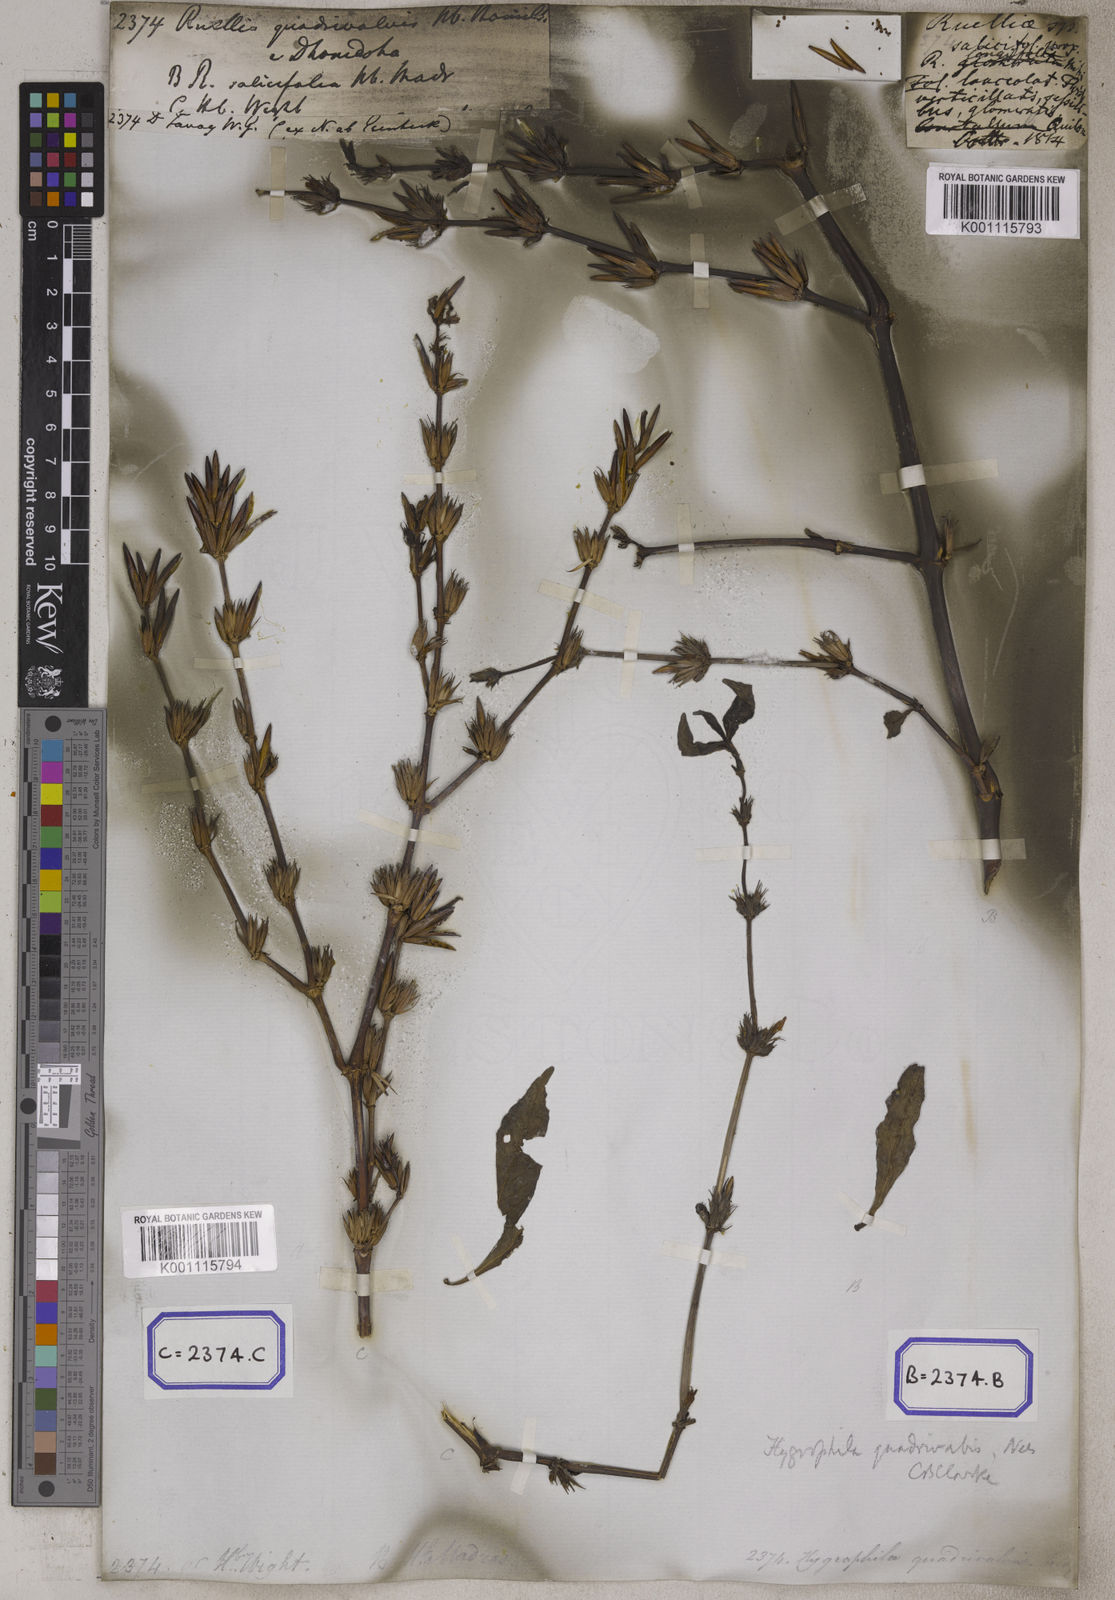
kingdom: Plantae
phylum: Tracheophyta
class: Magnoliopsida
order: Lamiales
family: Acanthaceae
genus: Ruellia
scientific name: Ruellia
